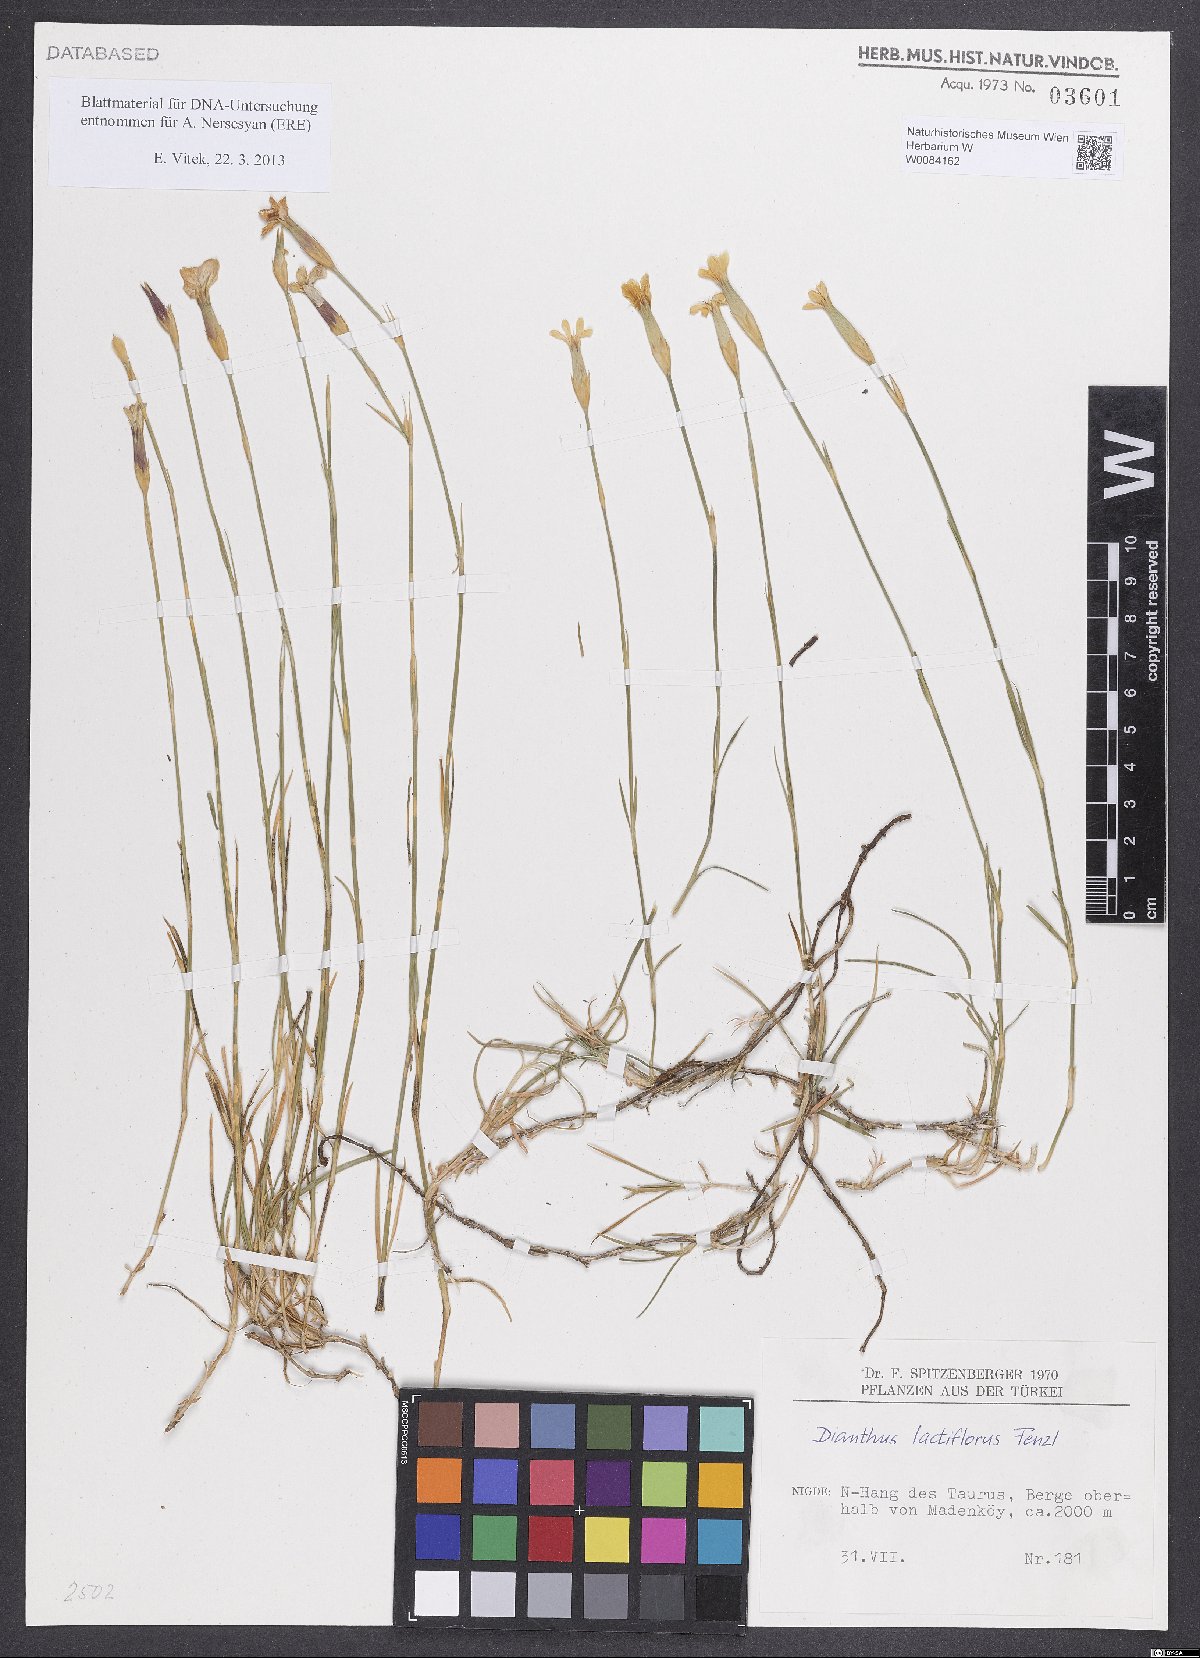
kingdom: Plantae
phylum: Tracheophyta
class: Magnoliopsida
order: Caryophyllales
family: Caryophyllaceae
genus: Dianthus
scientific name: Dianthus lactiflorus
